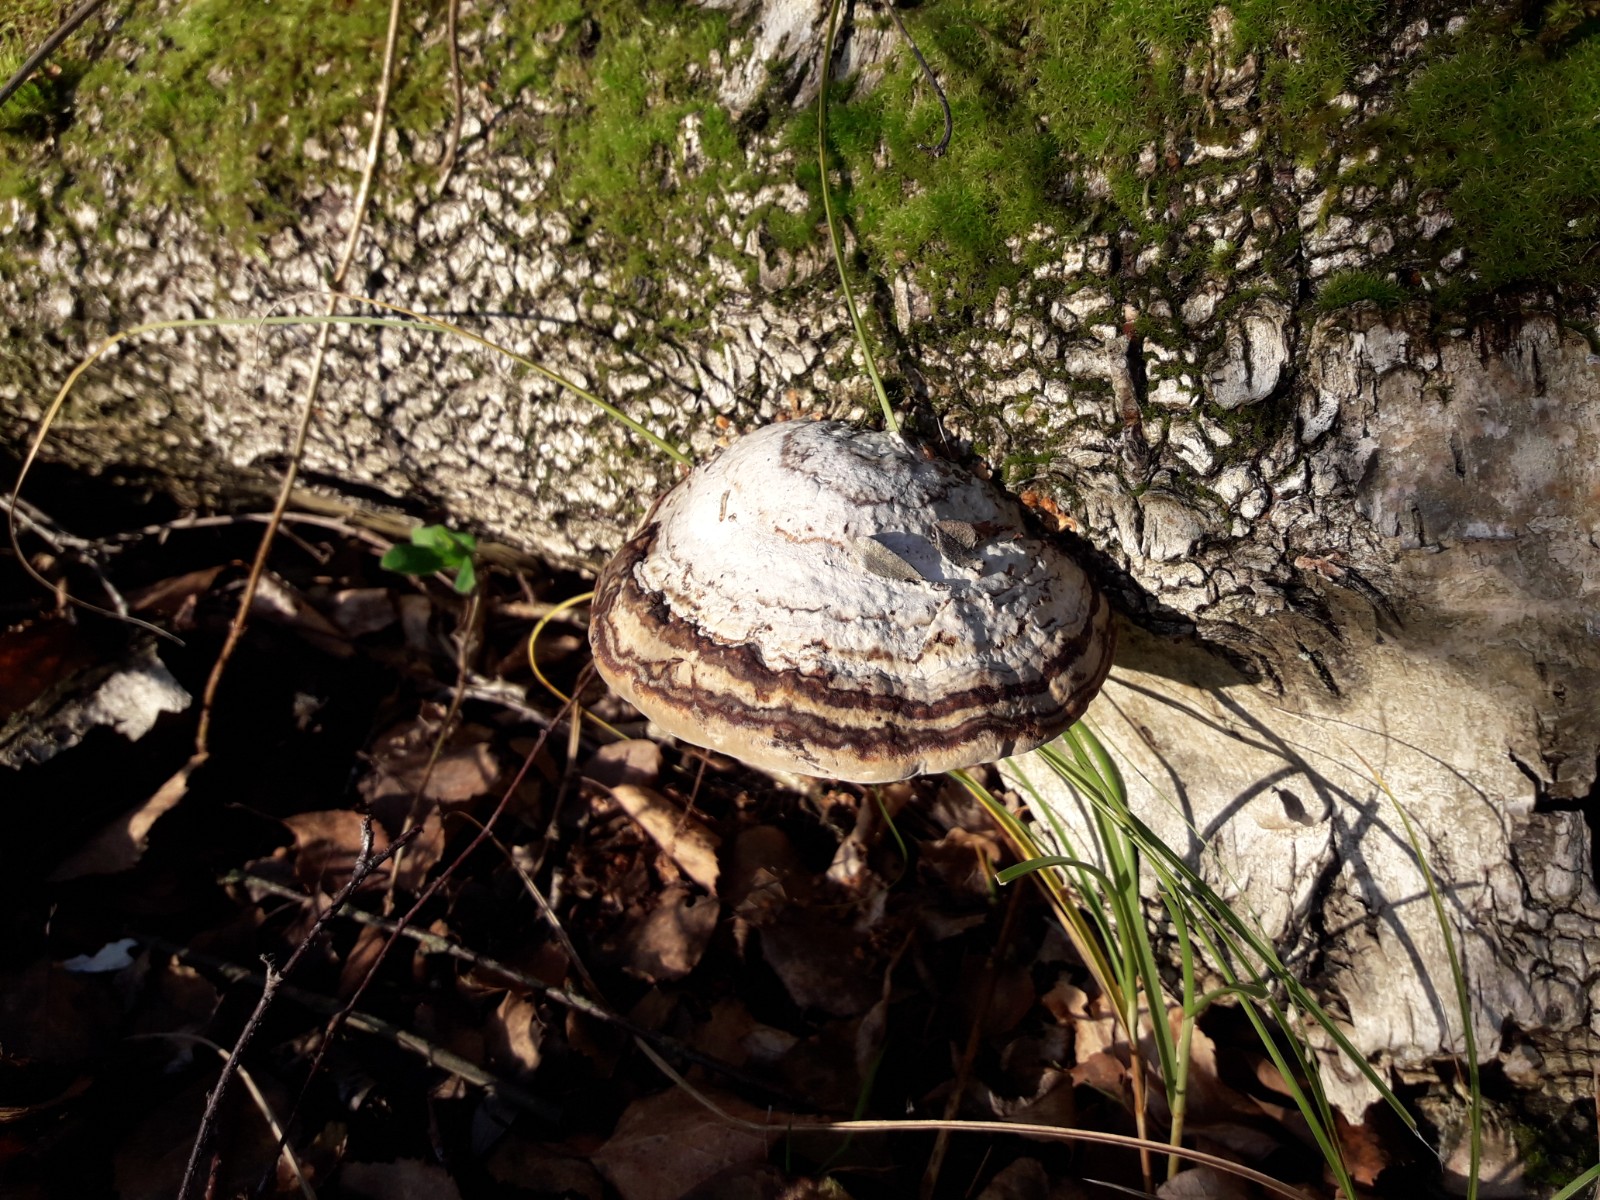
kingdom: Fungi
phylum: Basidiomycota
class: Agaricomycetes
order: Polyporales
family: Polyporaceae
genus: Fomes
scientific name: Fomes fomentarius
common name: tøndersvamp
